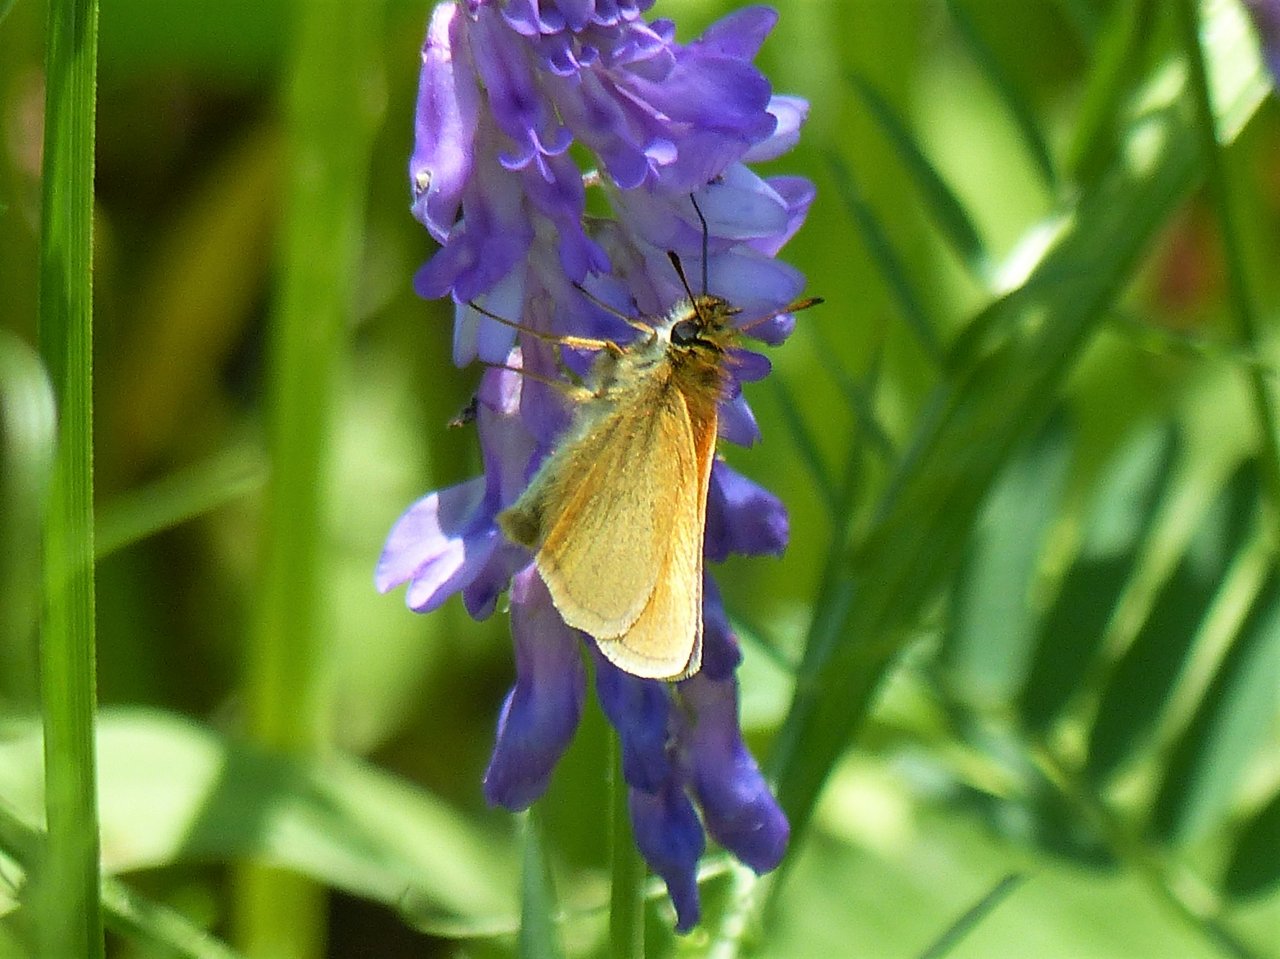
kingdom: Animalia
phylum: Arthropoda
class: Insecta
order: Lepidoptera
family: Hesperiidae
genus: Thymelicus
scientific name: Thymelicus lineola
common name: European Skipper
